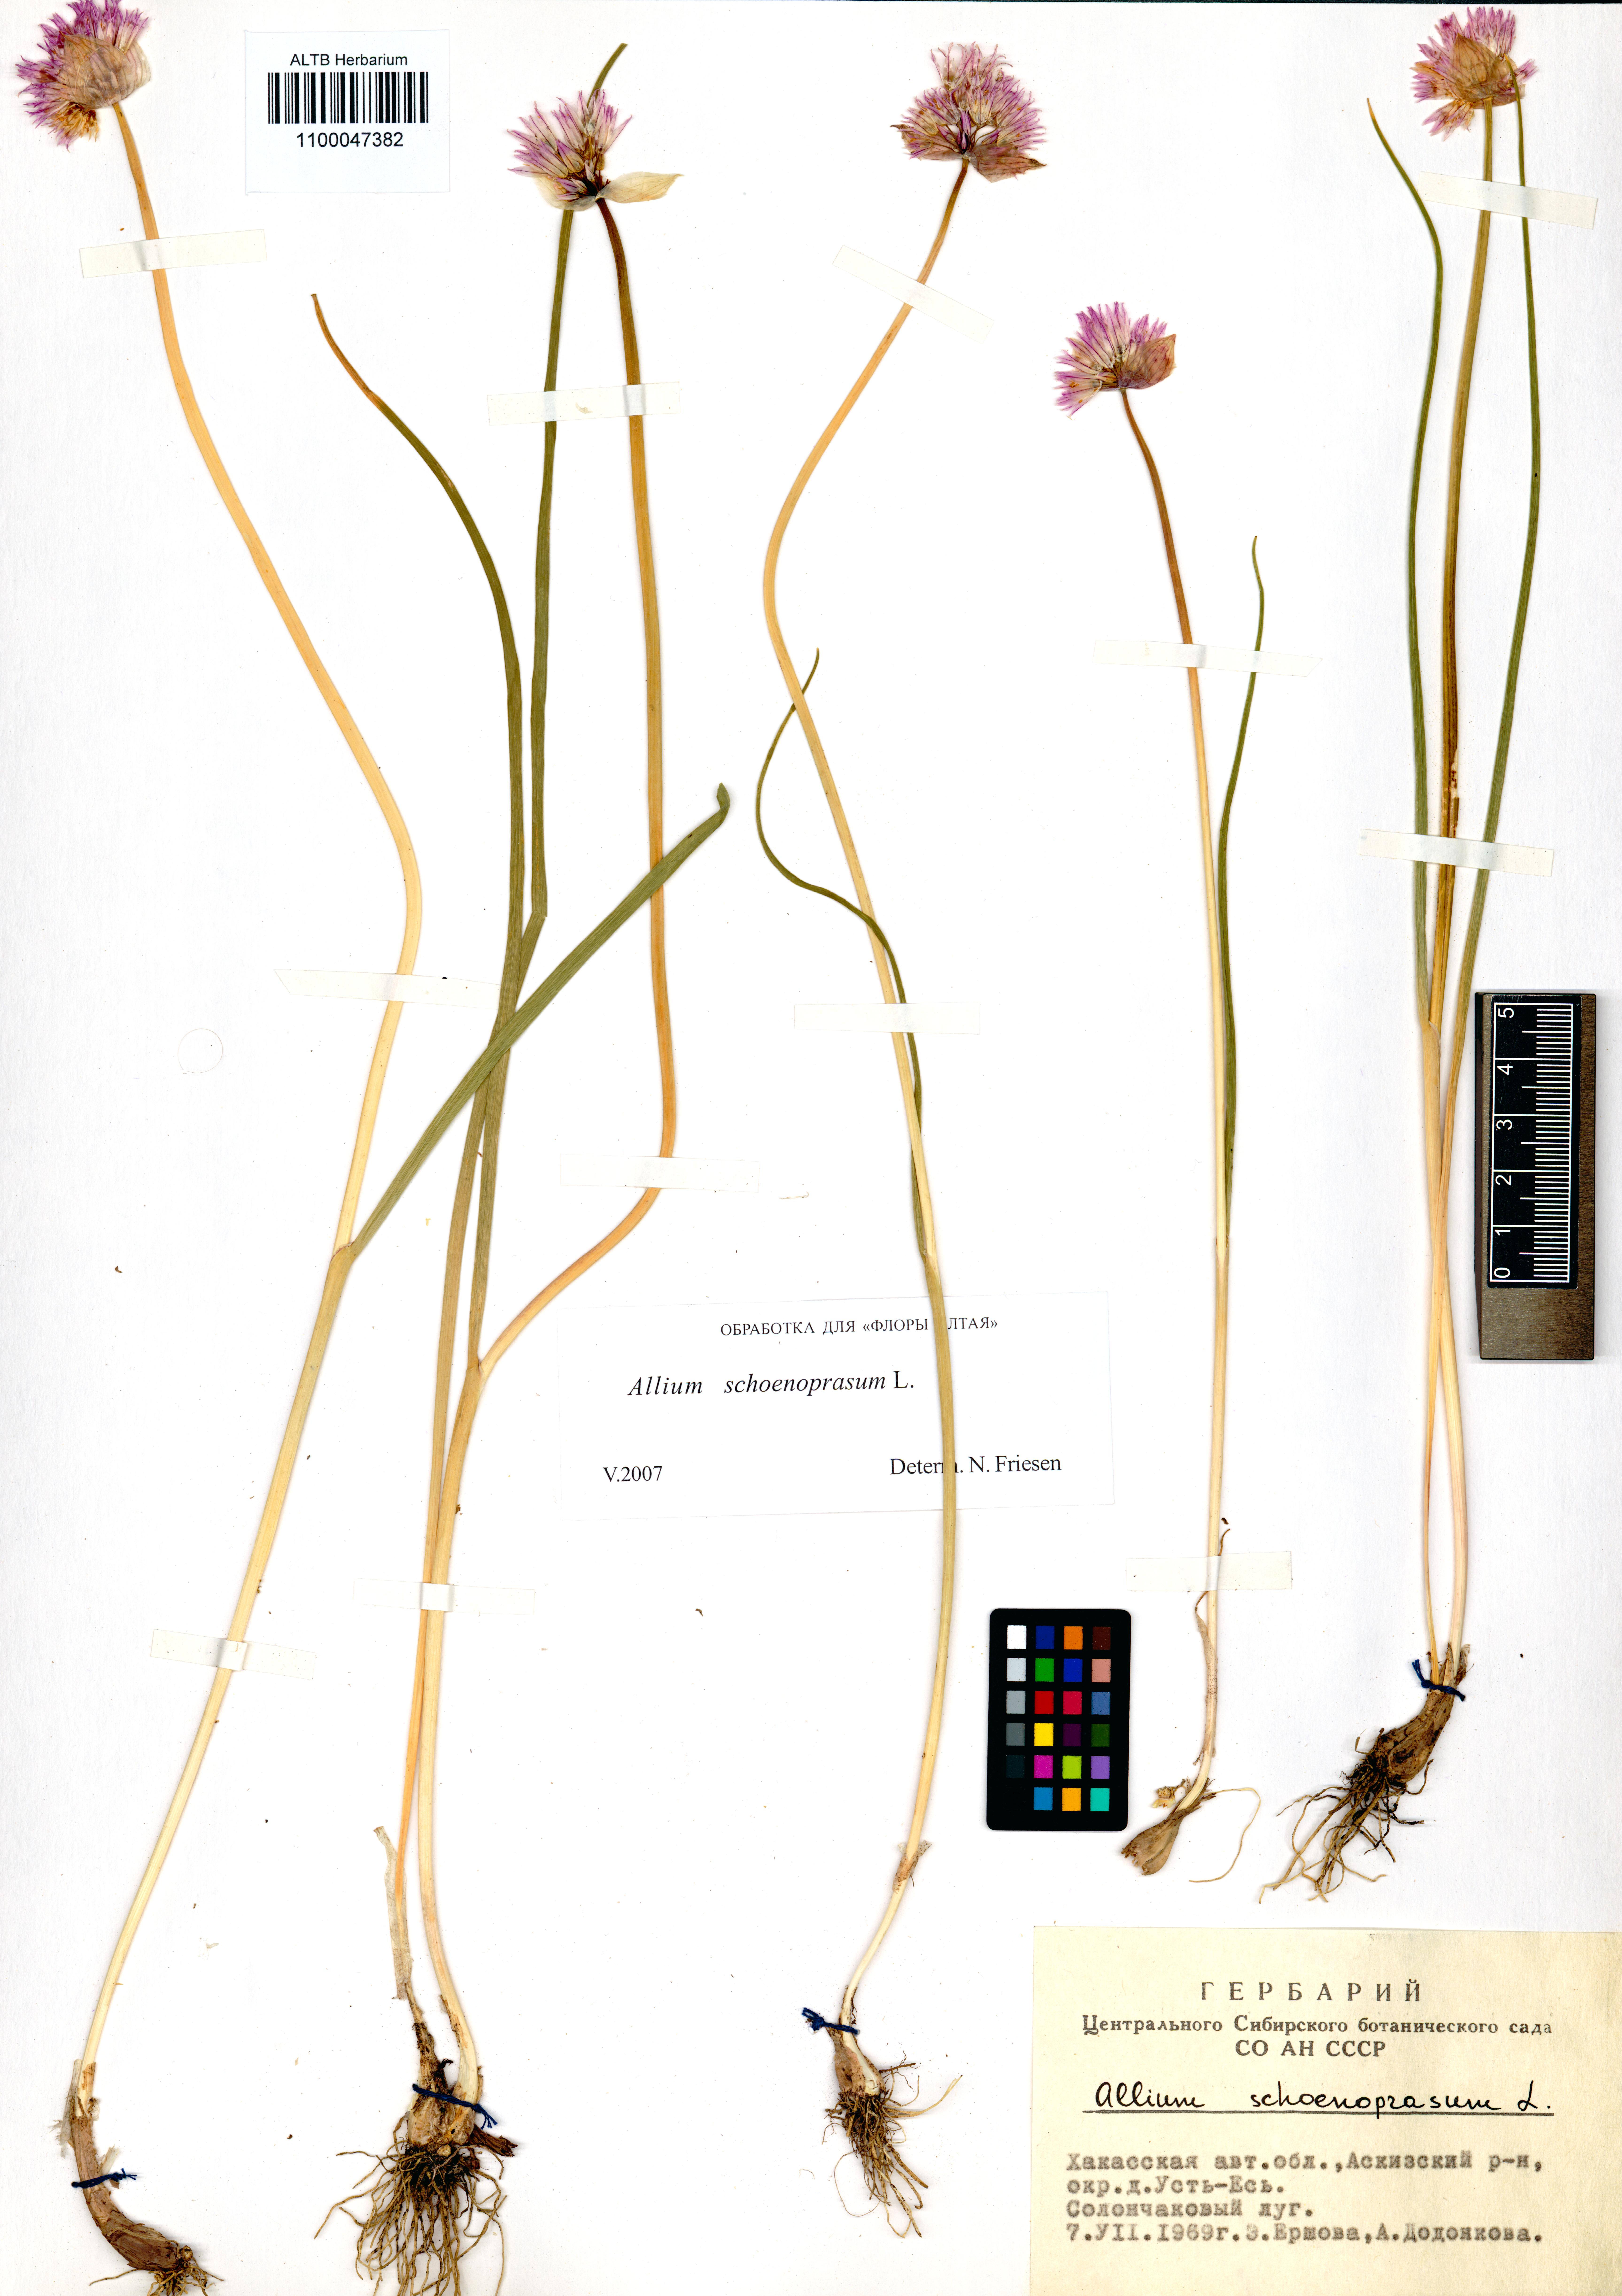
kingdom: Plantae
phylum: Tracheophyta
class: Liliopsida
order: Asparagales
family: Amaryllidaceae
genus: Allium
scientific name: Allium schoenoprasum
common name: Chives
